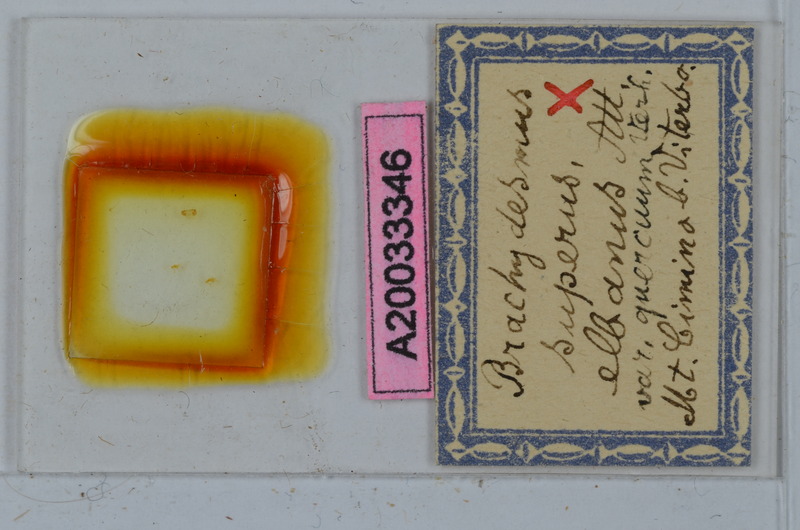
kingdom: Animalia
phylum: Arthropoda
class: Diplopoda
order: Polydesmida
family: Polydesmidae
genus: Brachydesmus
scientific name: Brachydesmus superus
